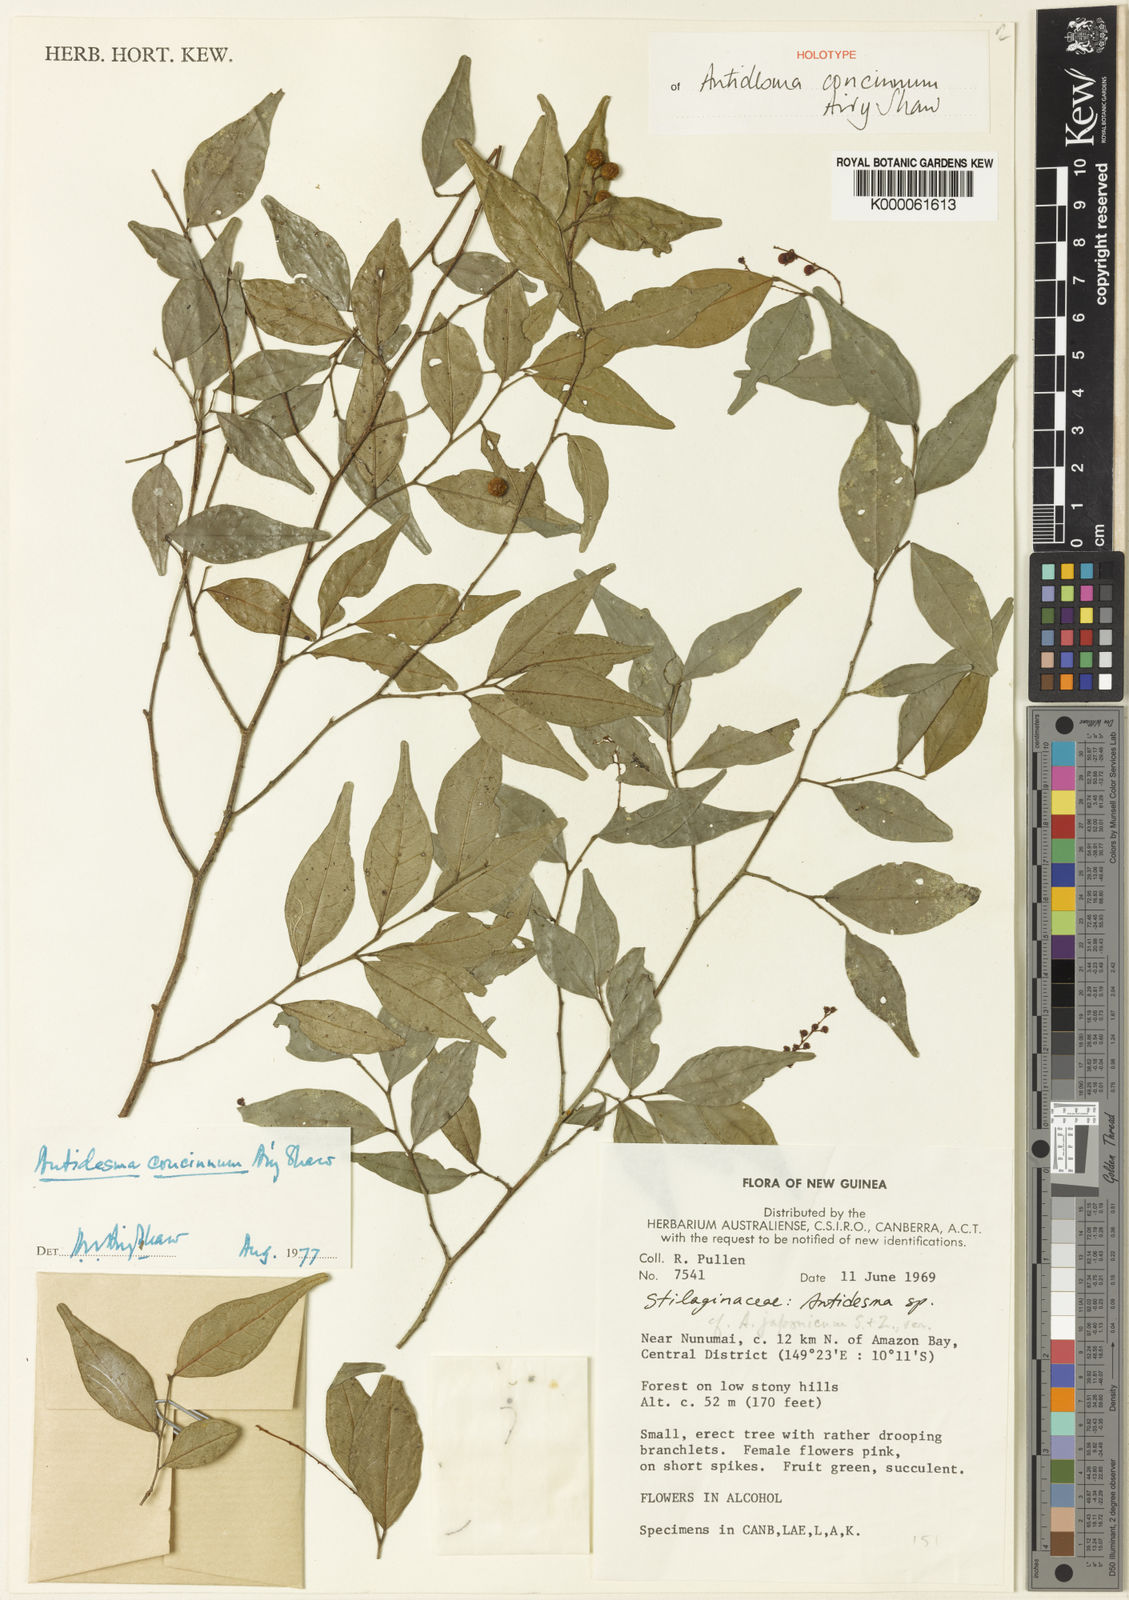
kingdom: Plantae
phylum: Tracheophyta
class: Magnoliopsida
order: Malpighiales
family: Phyllanthaceae
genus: Antidesma
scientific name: Antidesma concinnum
